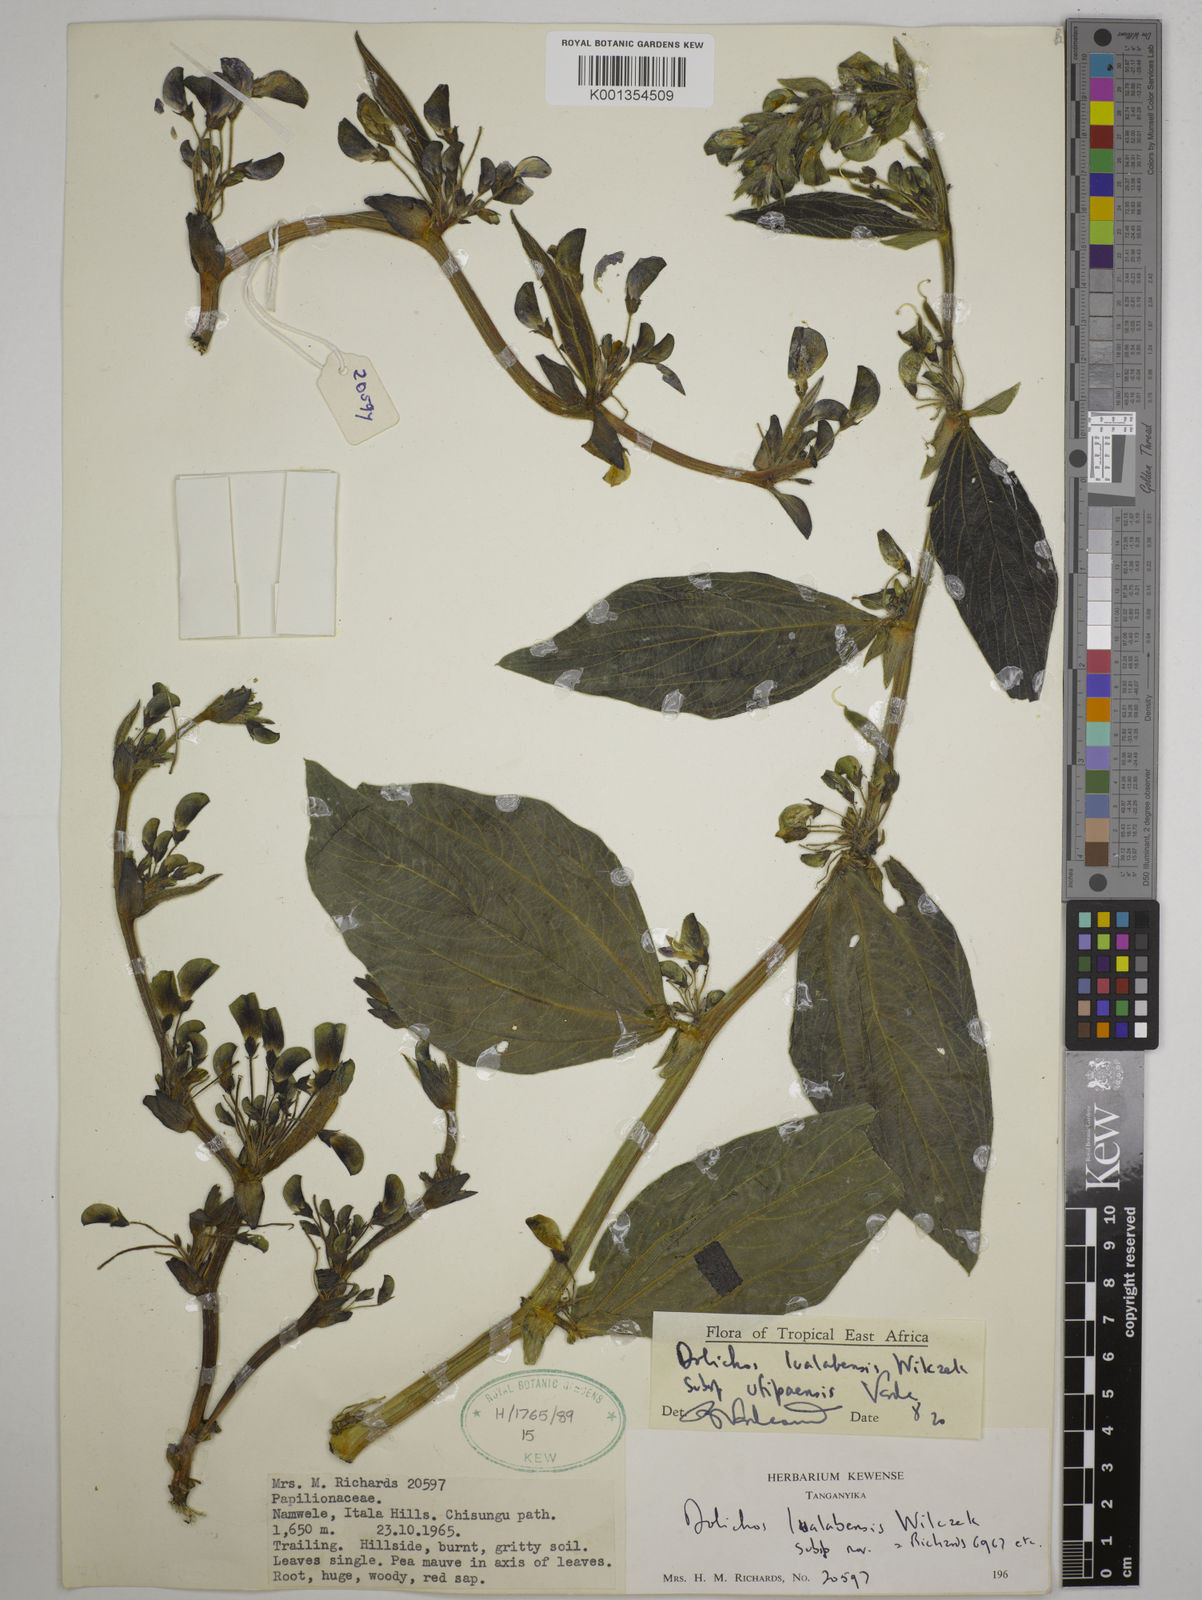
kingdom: Plantae
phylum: Tracheophyta
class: Magnoliopsida
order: Fabales
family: Fabaceae
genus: Dolichos
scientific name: Dolichos
